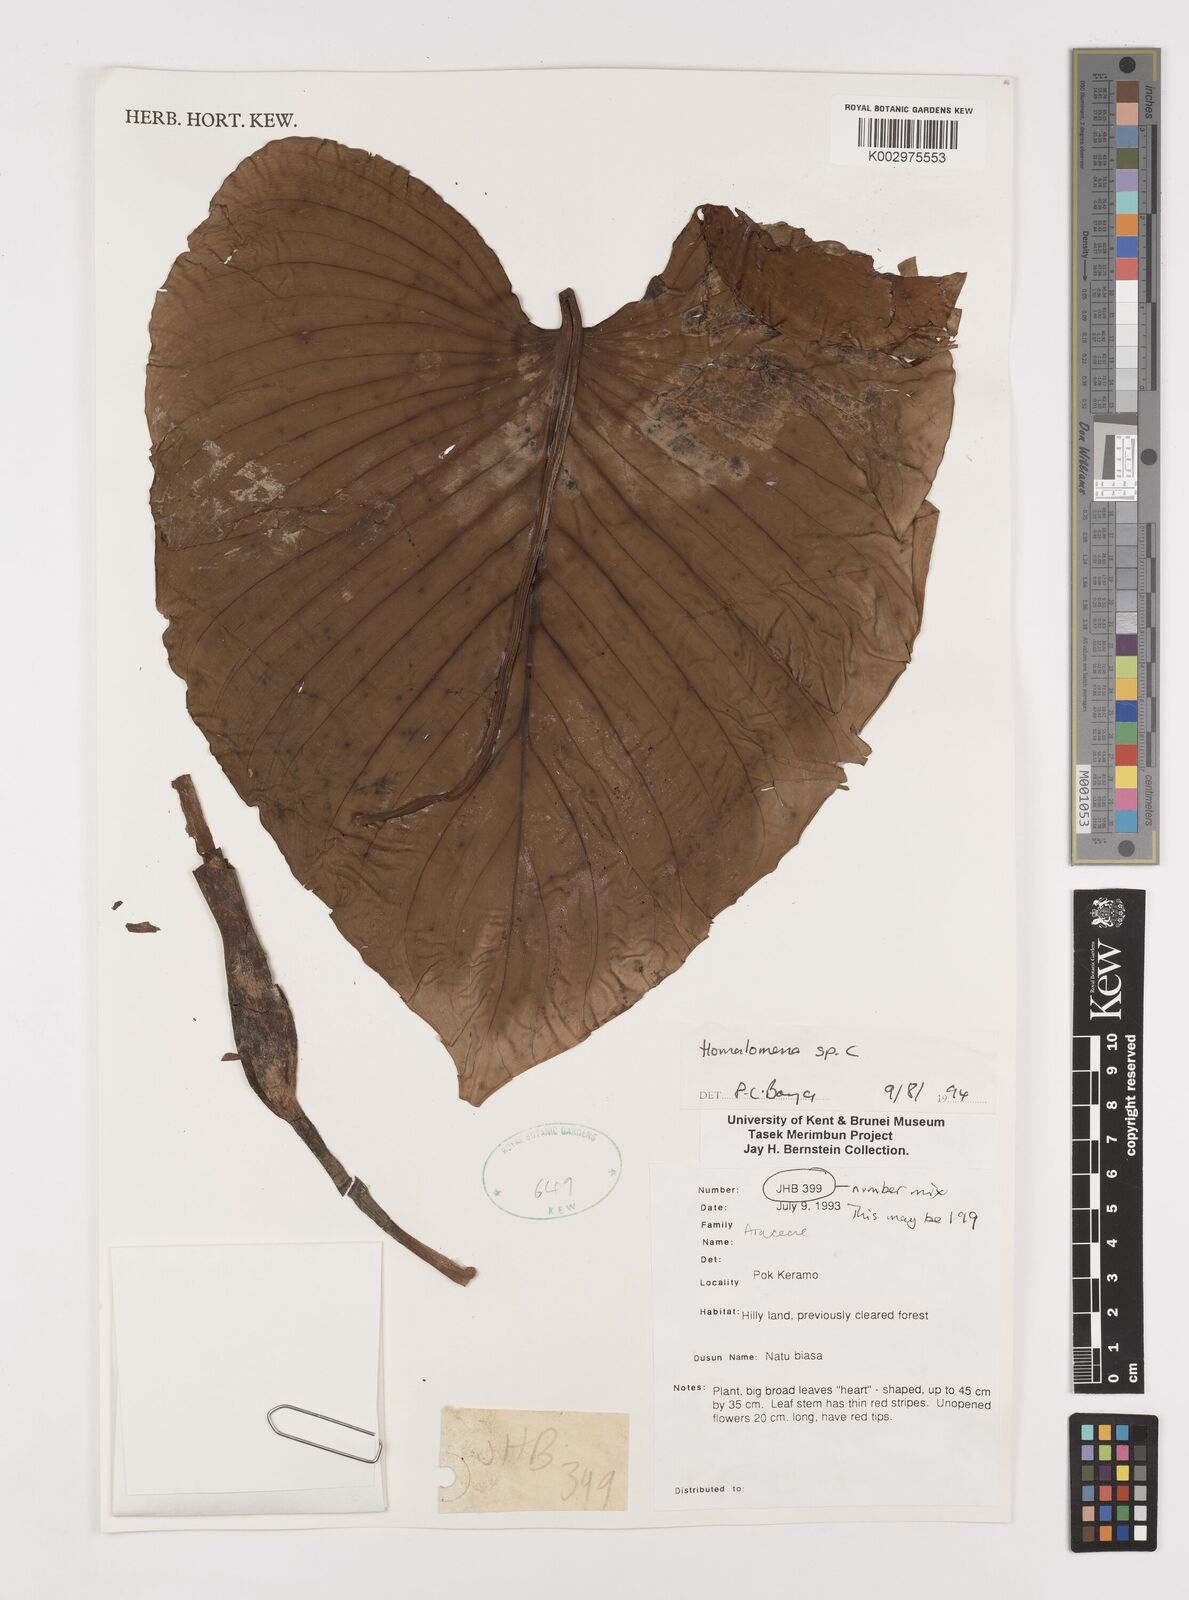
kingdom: Plantae
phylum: Tracheophyta
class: Liliopsida
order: Alismatales
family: Araceae
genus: Homalomena
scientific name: Homalomena
